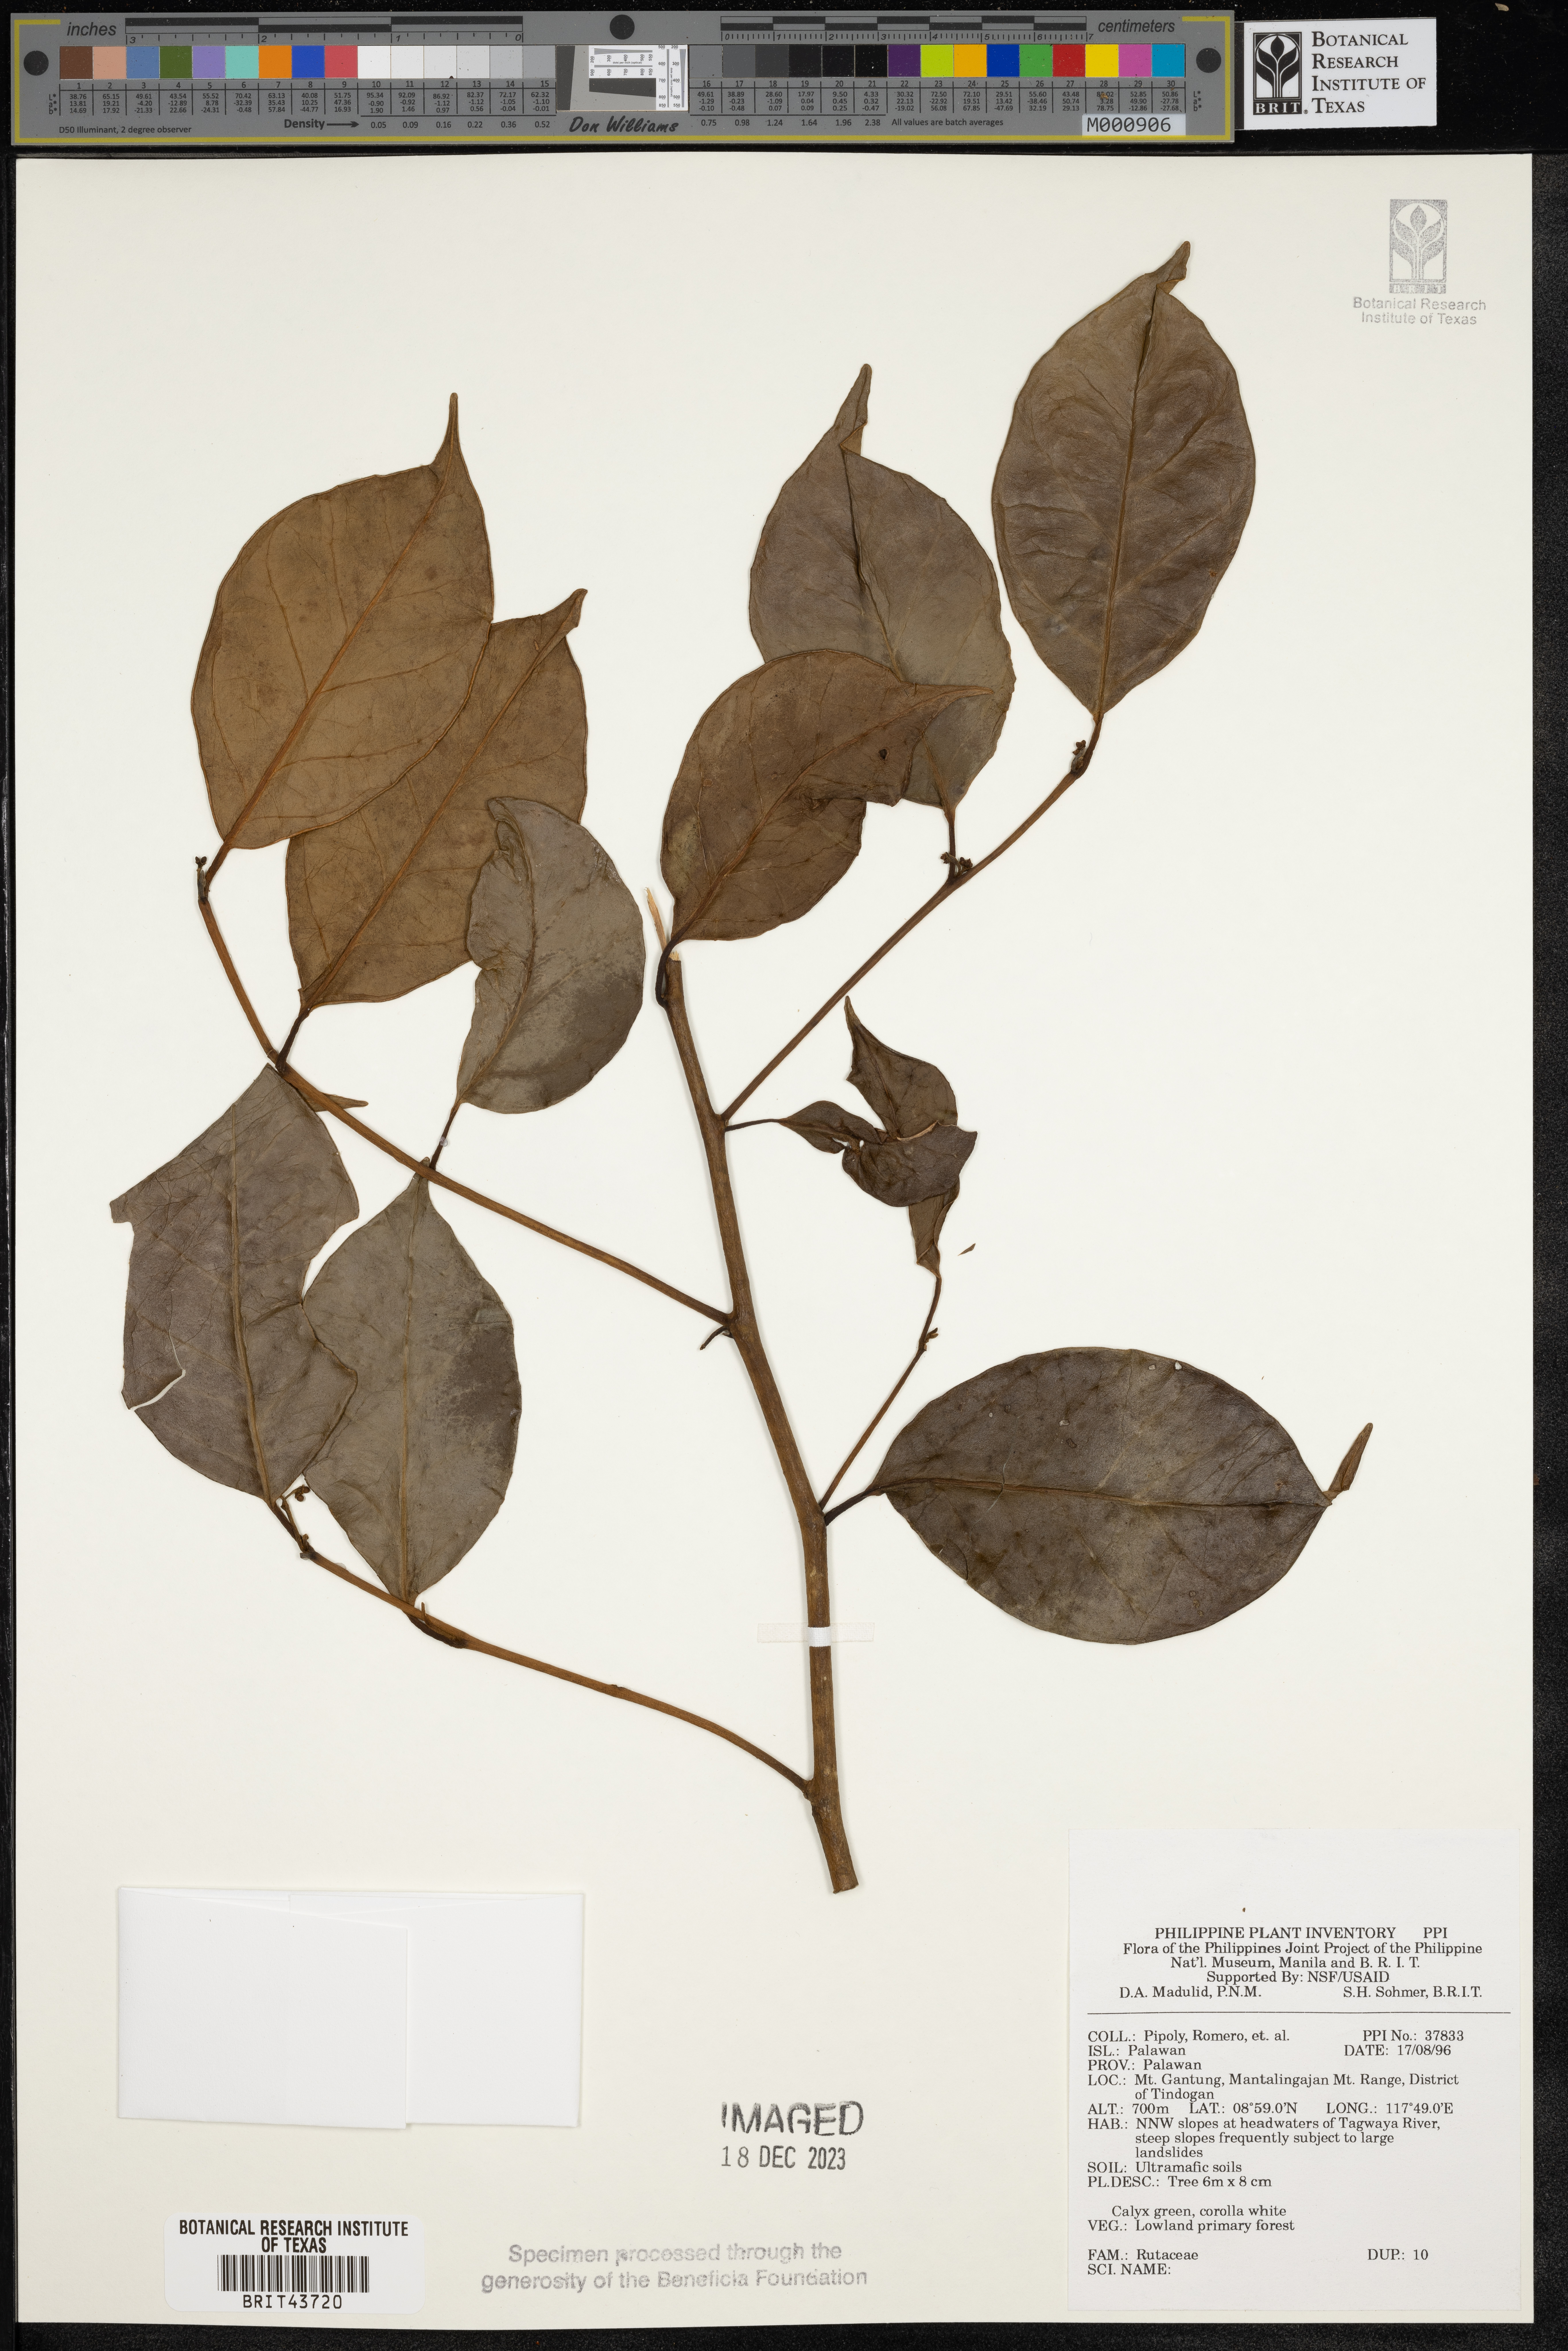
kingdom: Plantae
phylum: Tracheophyta
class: Magnoliopsida
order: Sapindales
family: Rutaceae
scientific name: Rutaceae
